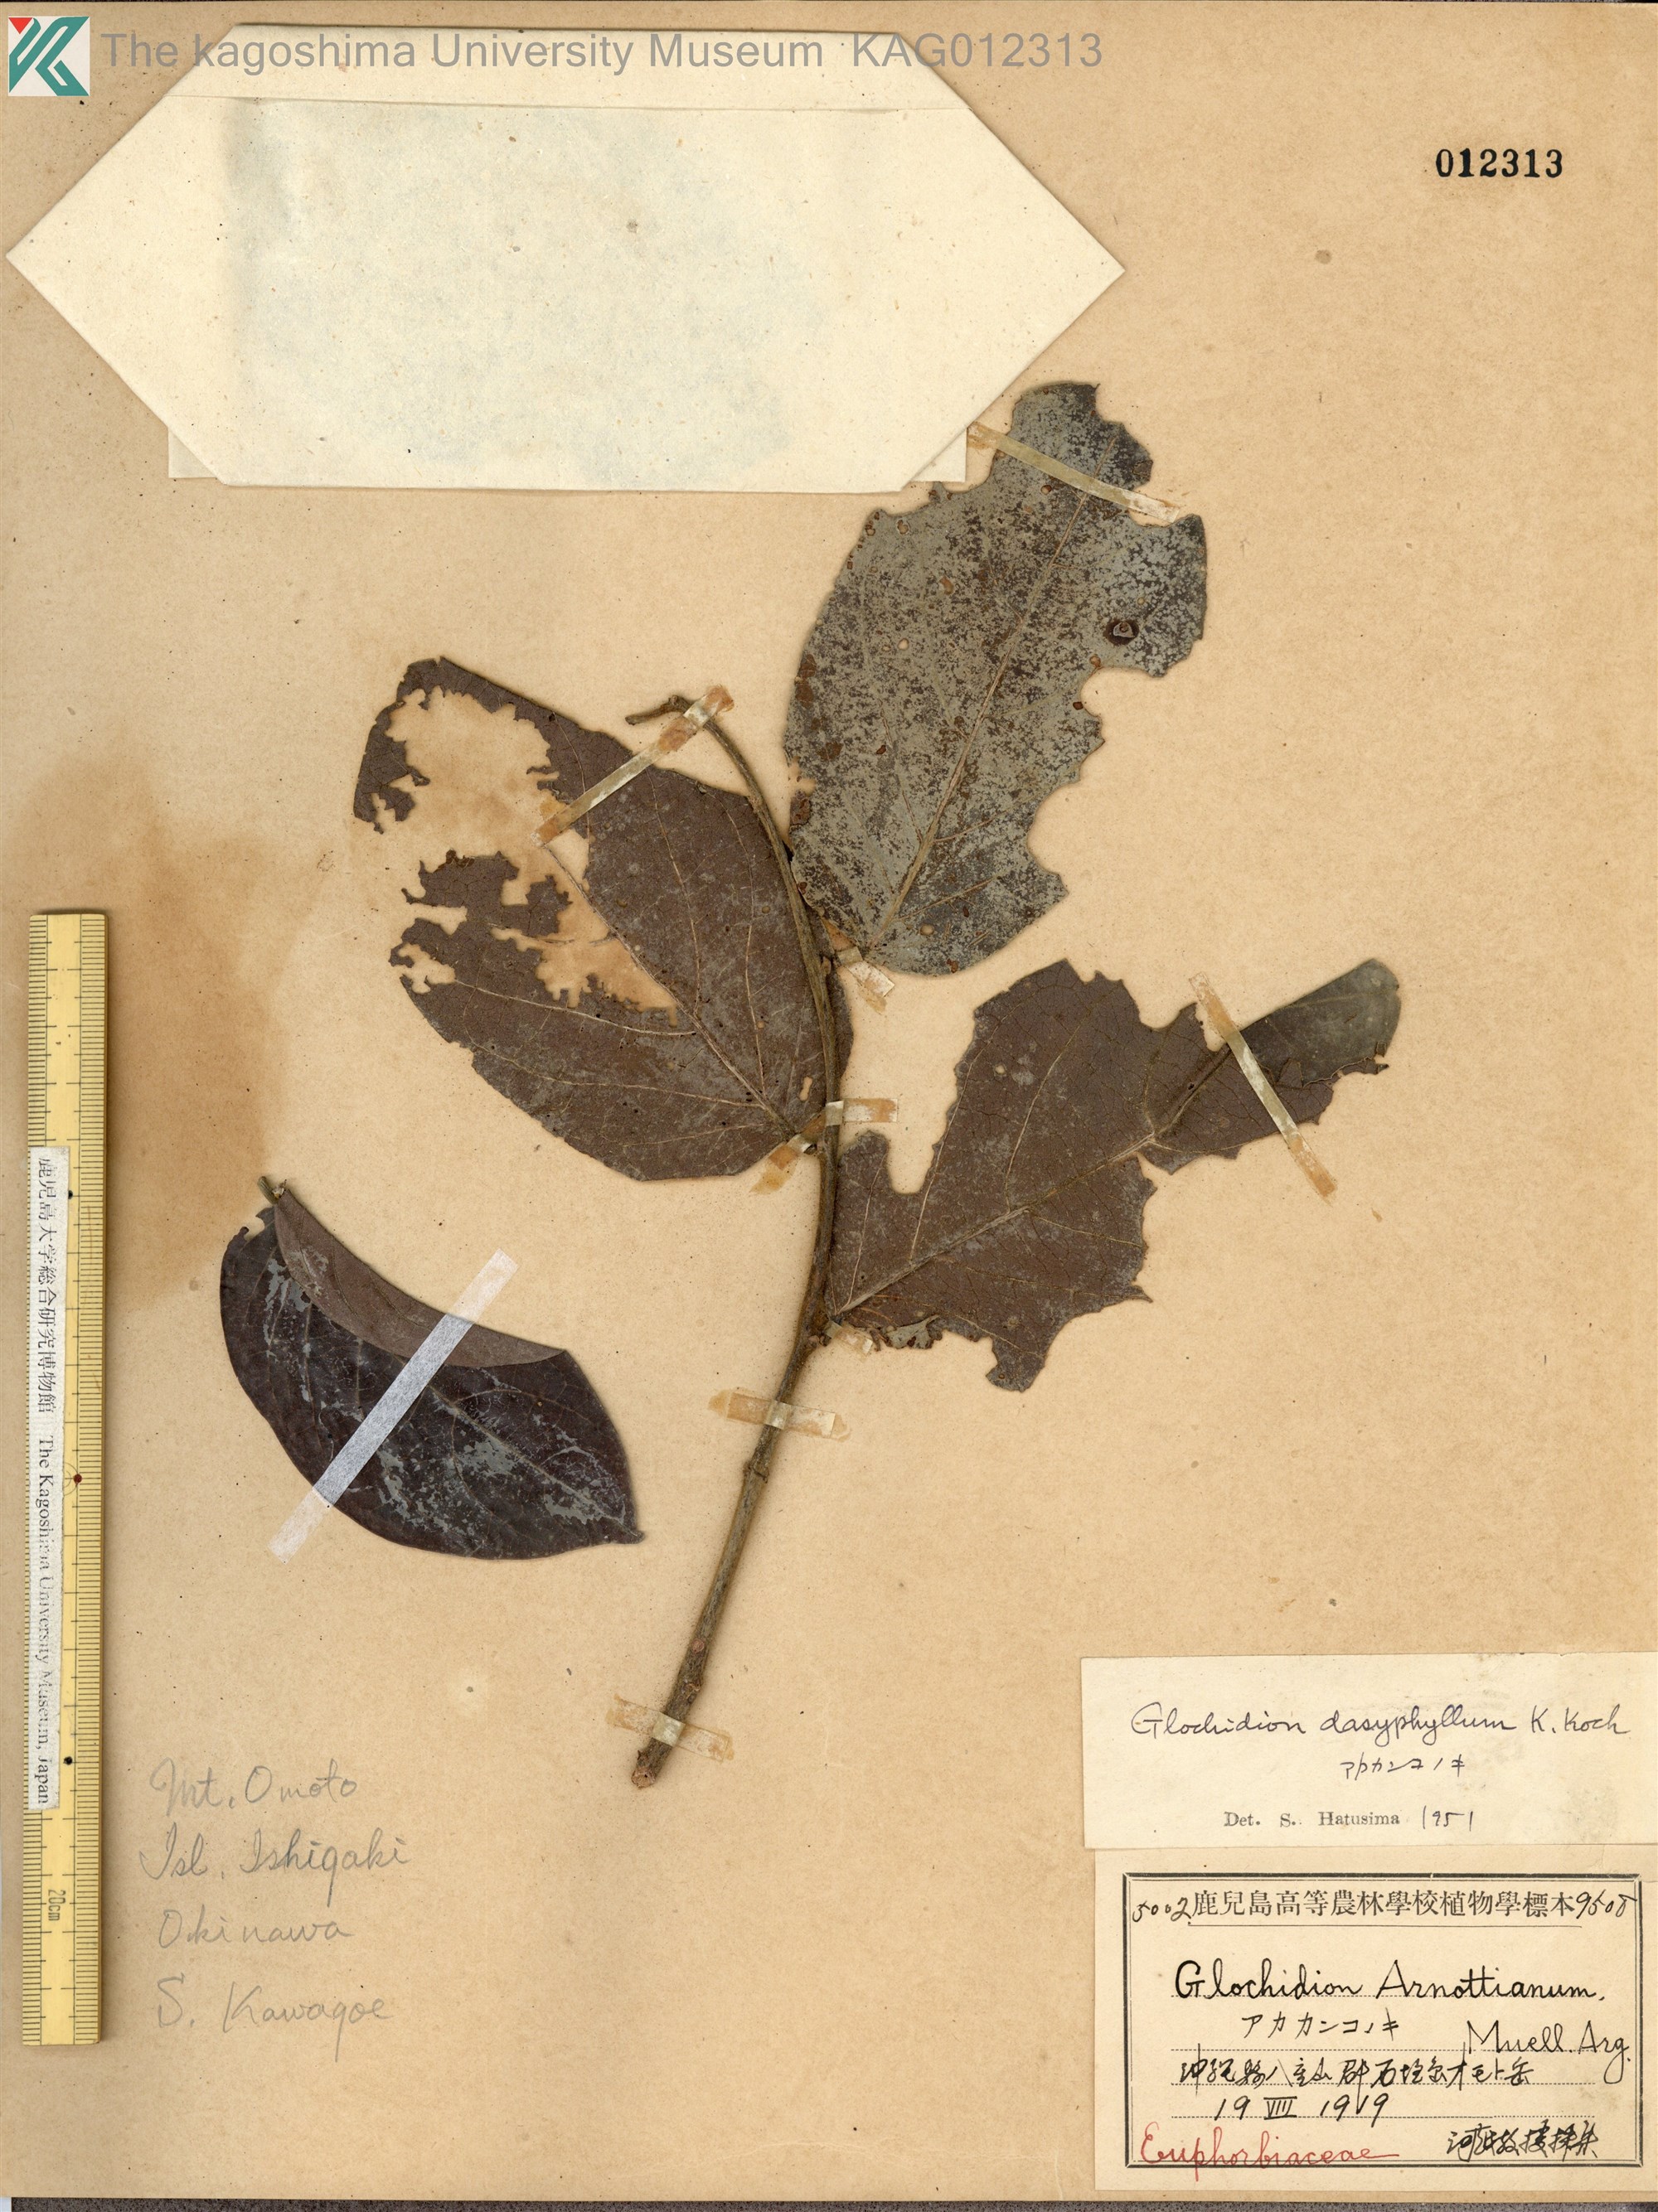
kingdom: Plantae
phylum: Tracheophyta
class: Magnoliopsida
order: Malpighiales
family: Phyllanthaceae
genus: Glochidion
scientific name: Glochidion zeylanicum
